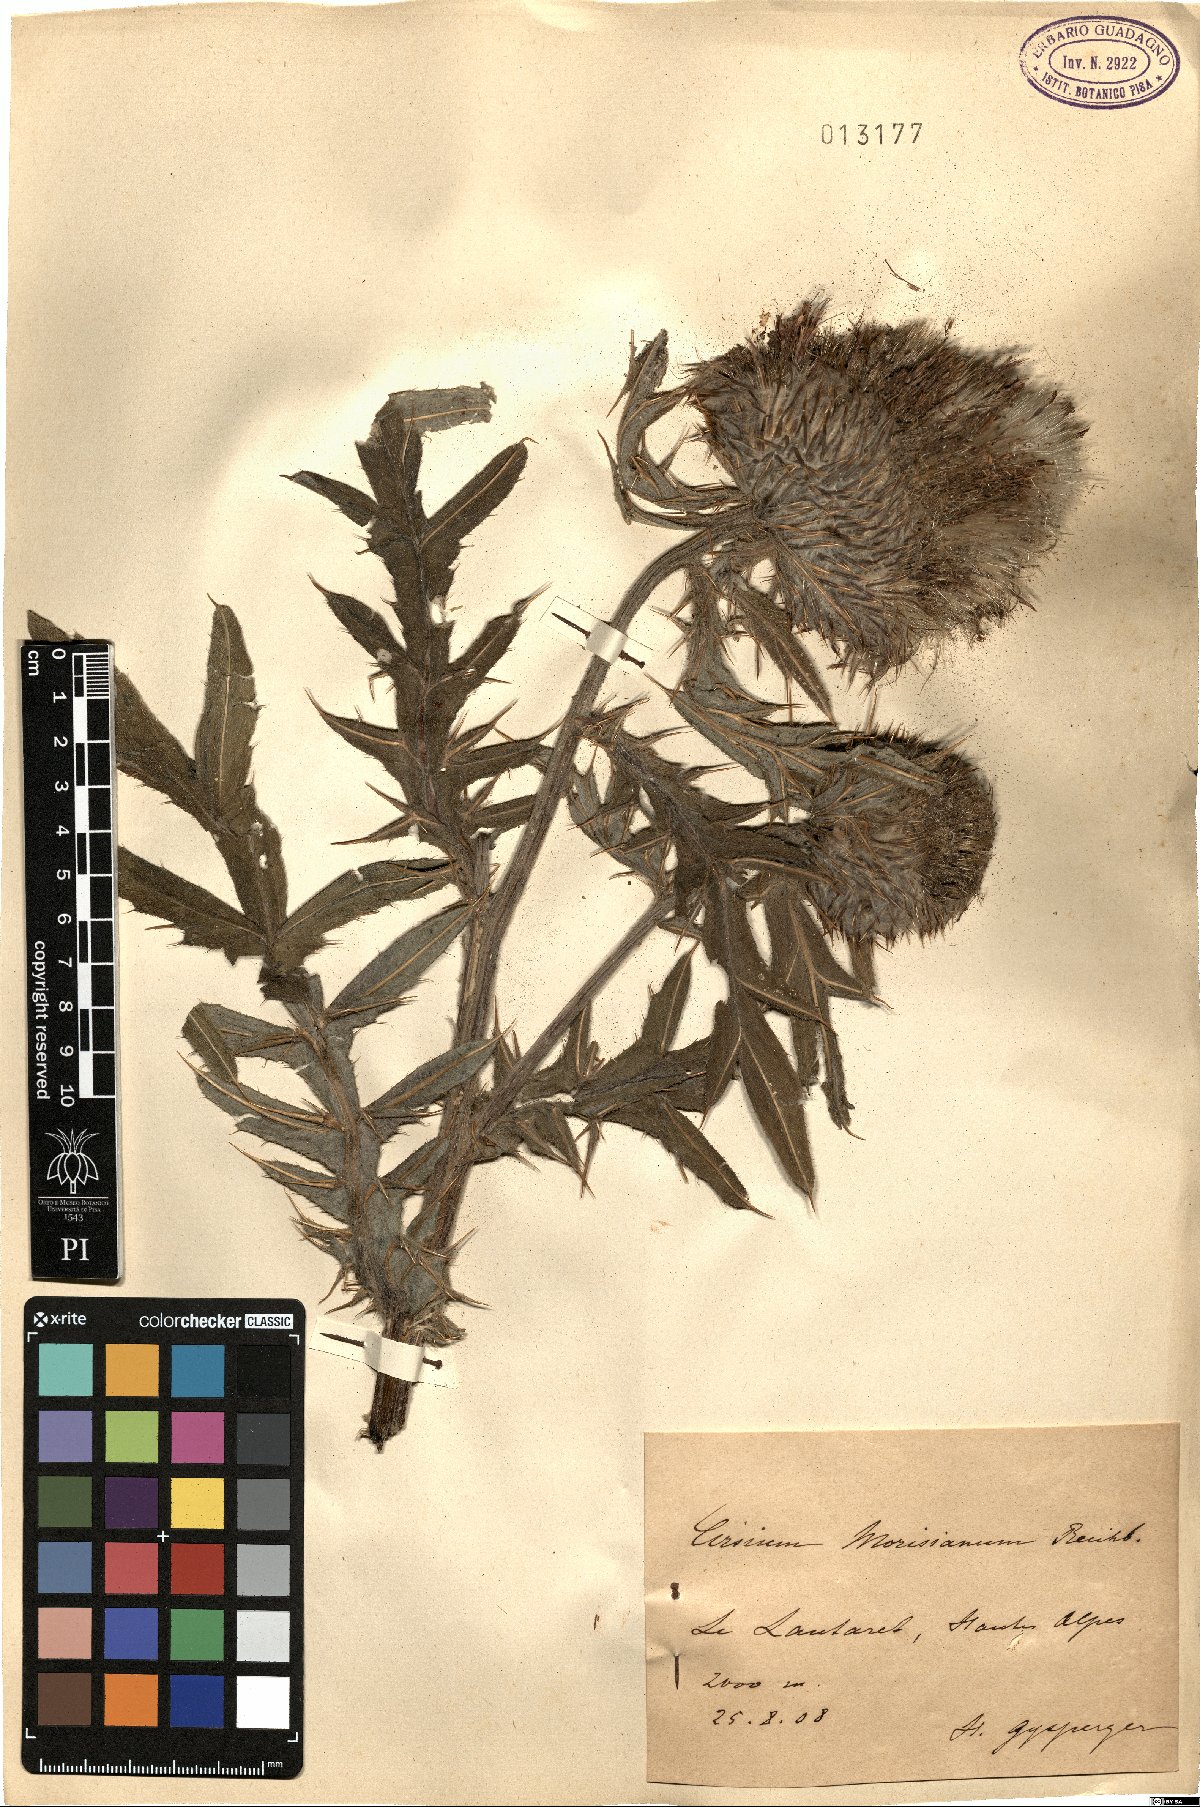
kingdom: Plantae
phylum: Tracheophyta
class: Magnoliopsida
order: Asterales
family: Asteraceae
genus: Lophiolepis
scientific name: Lophiolepis morisiana
